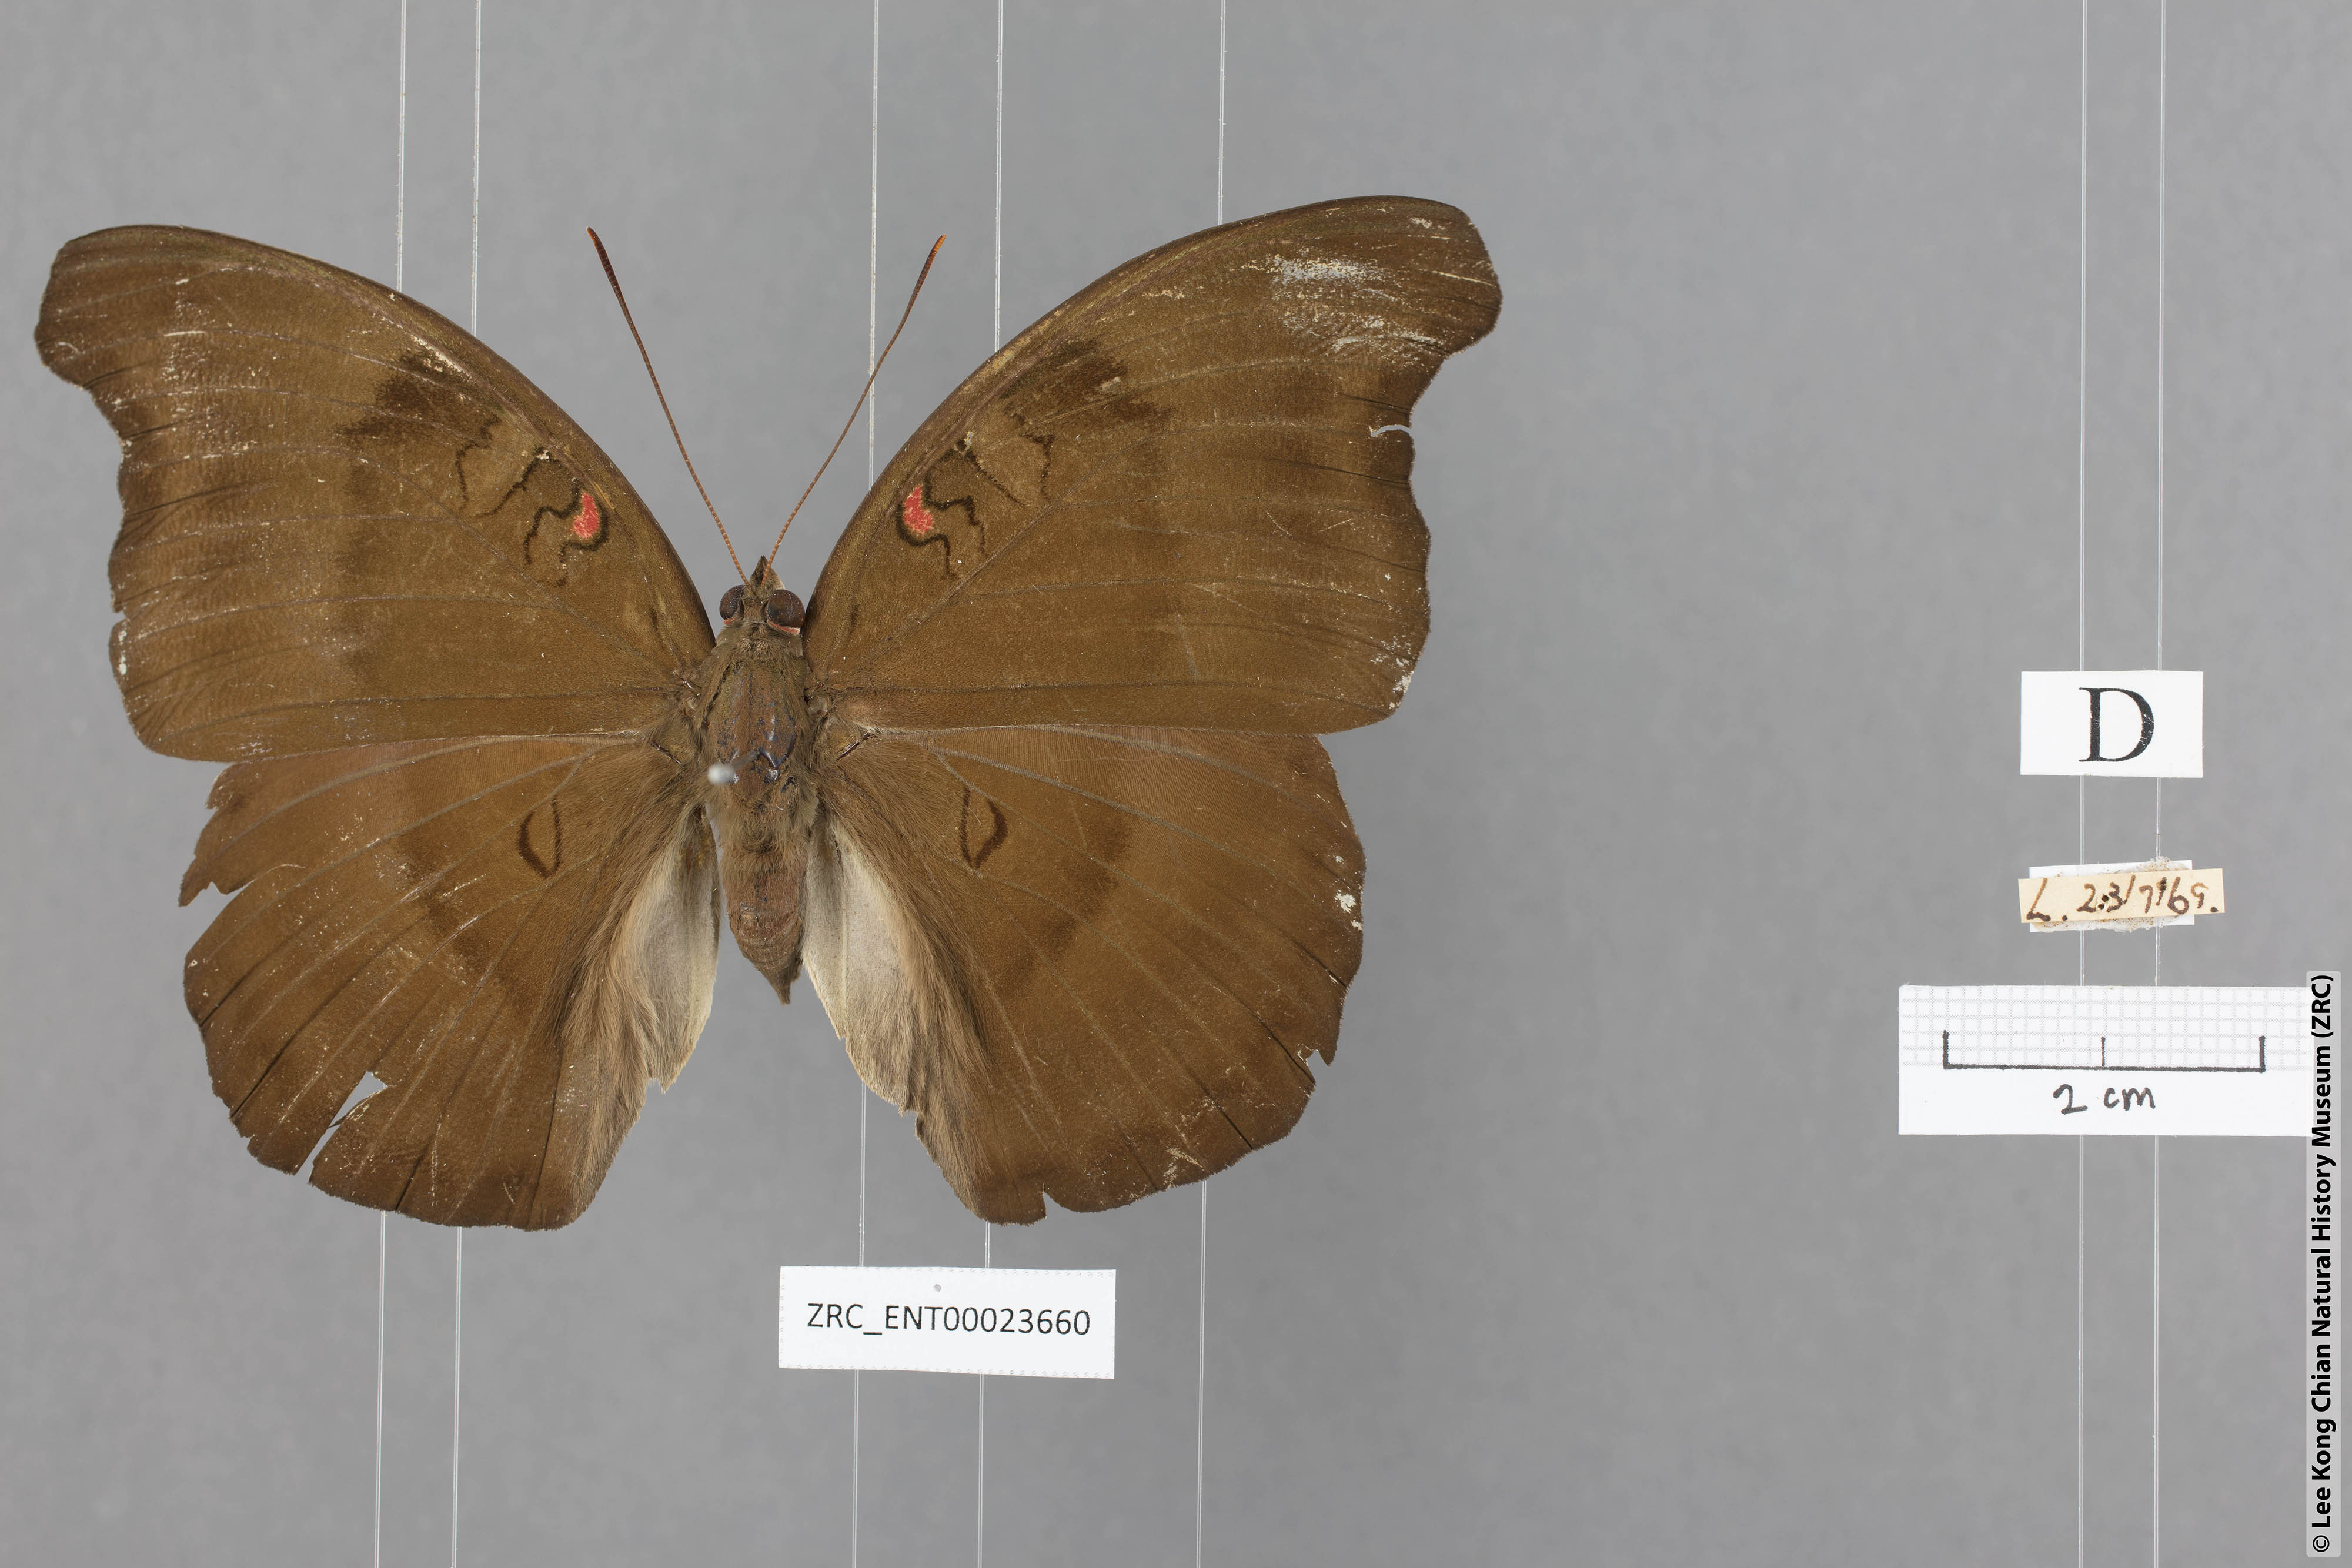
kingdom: Animalia
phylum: Arthropoda
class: Insecta
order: Lepidoptera
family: Nymphalidae
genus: Euthalia
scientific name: Euthalia Dophla evelina
